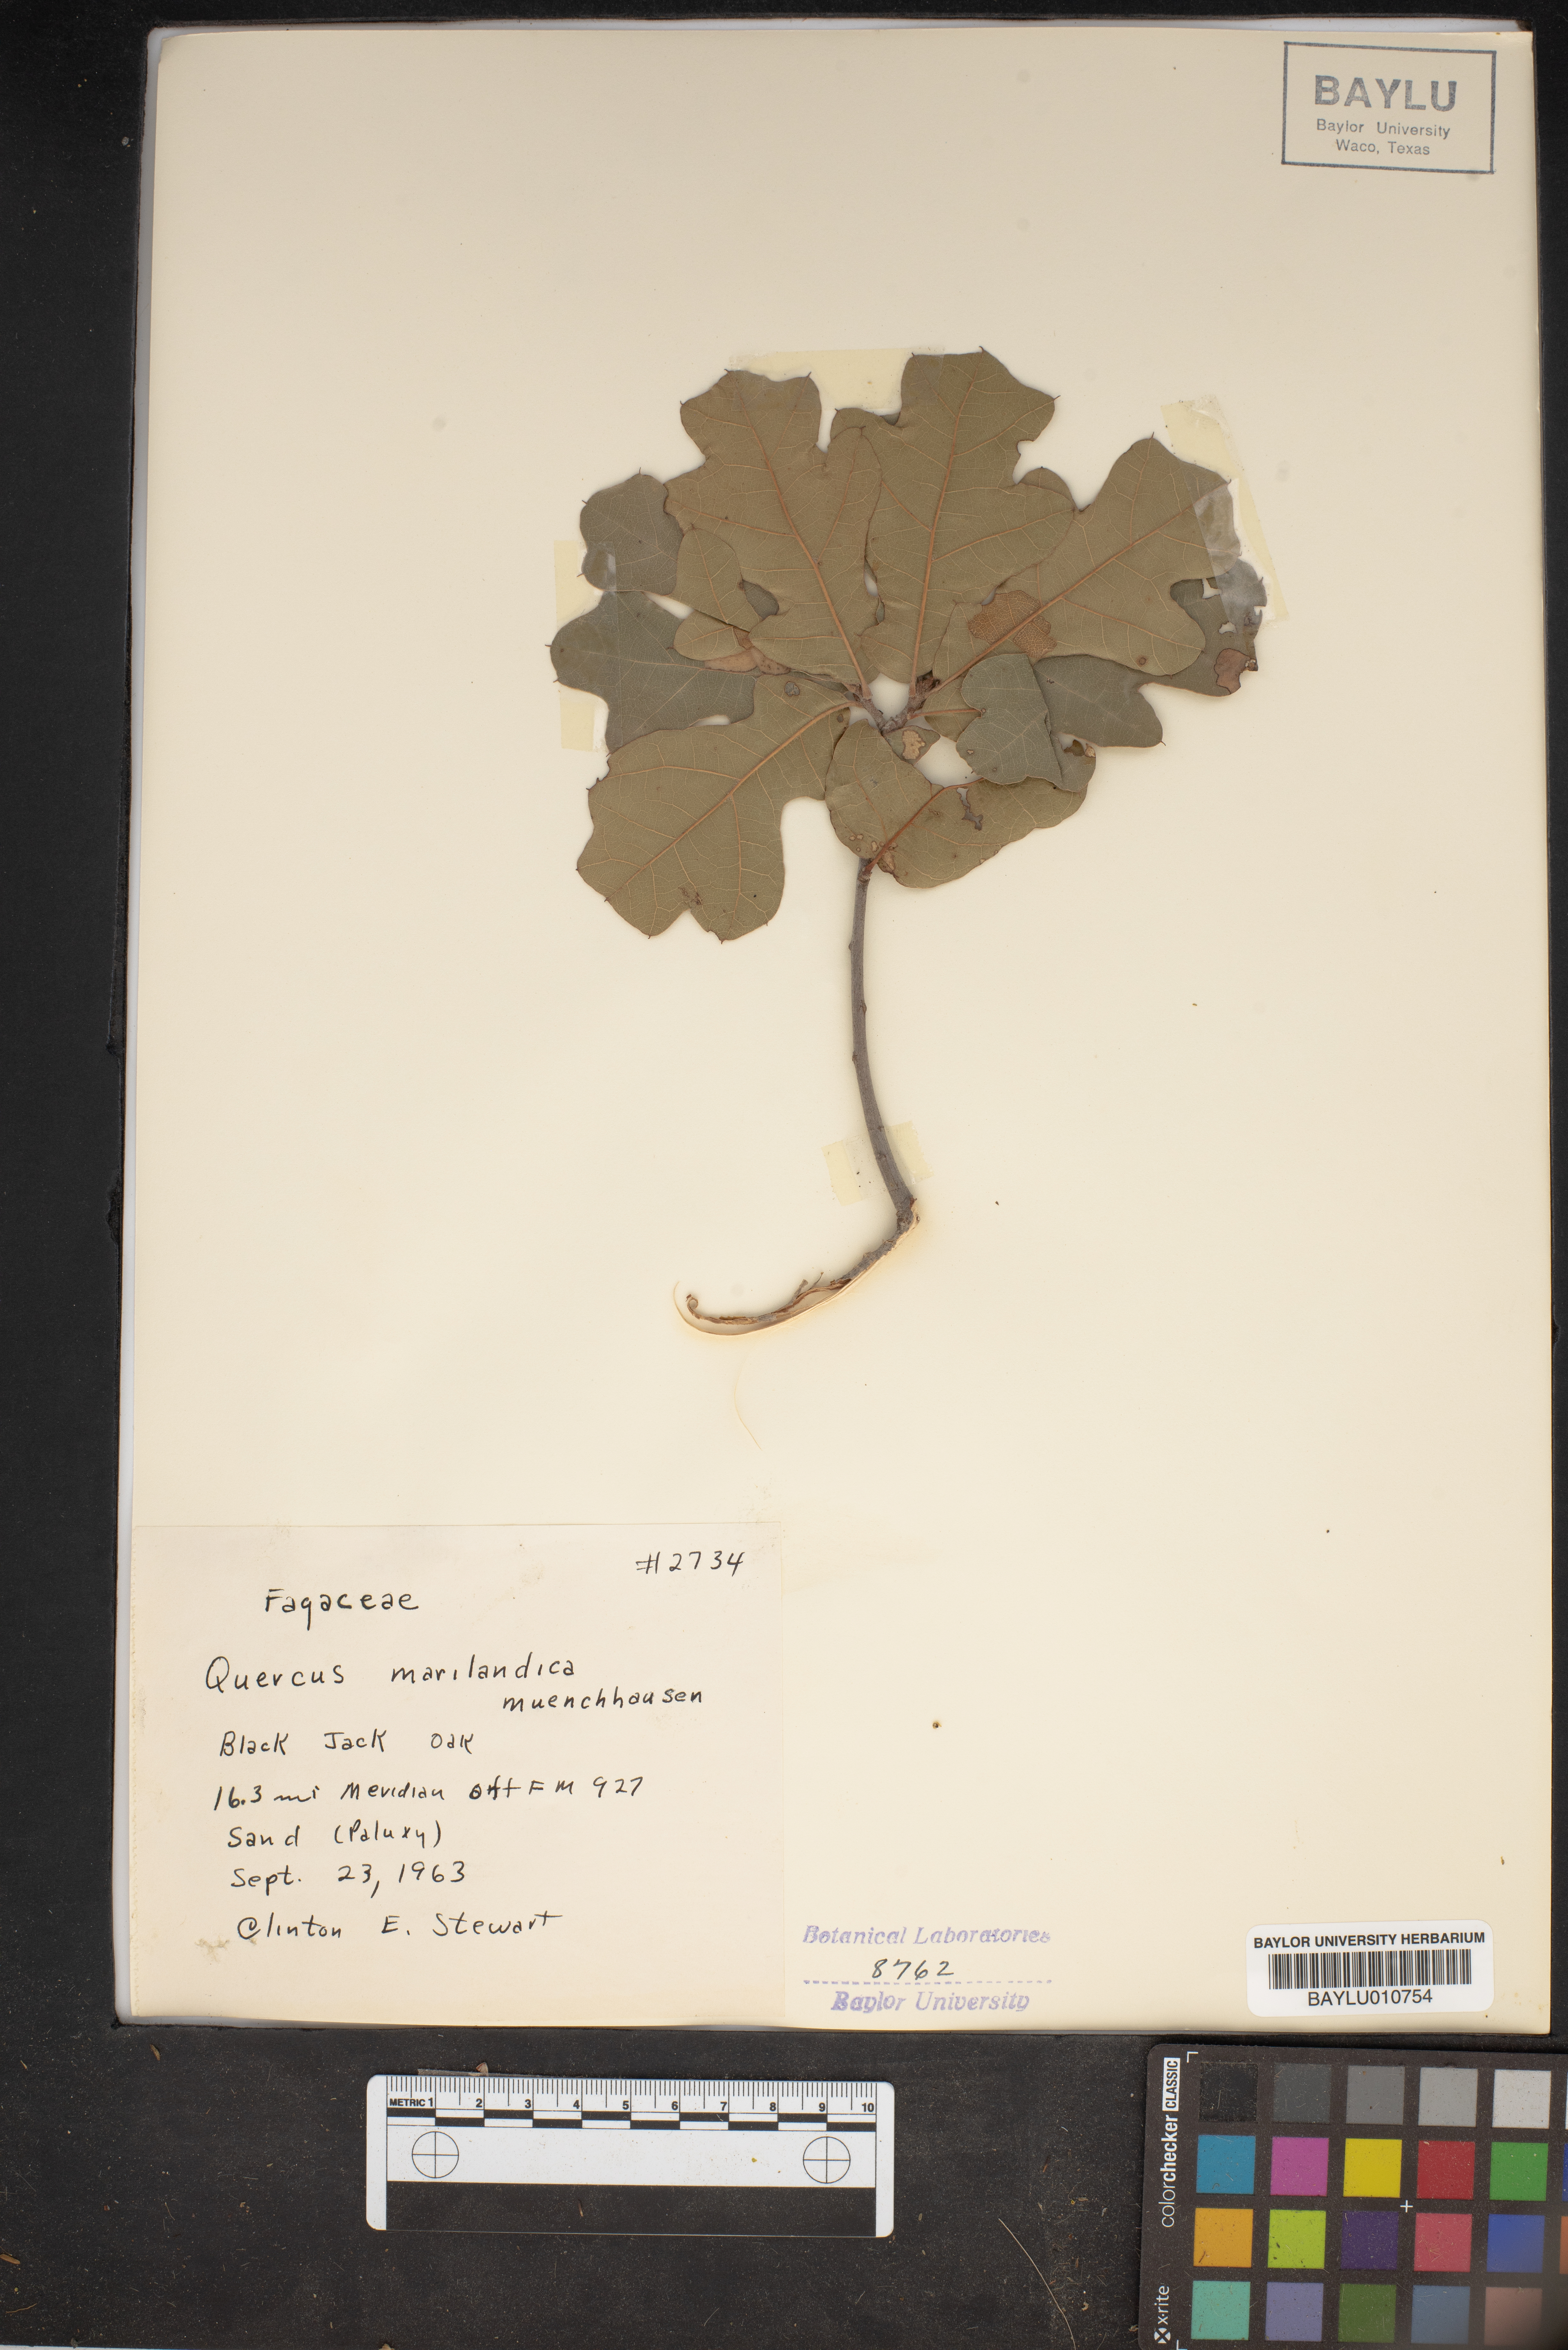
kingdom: Plantae
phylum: Tracheophyta
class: Magnoliopsida
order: Fagales
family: Fagaceae
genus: Quercus
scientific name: Quercus marilandica
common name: Blackjack oak
